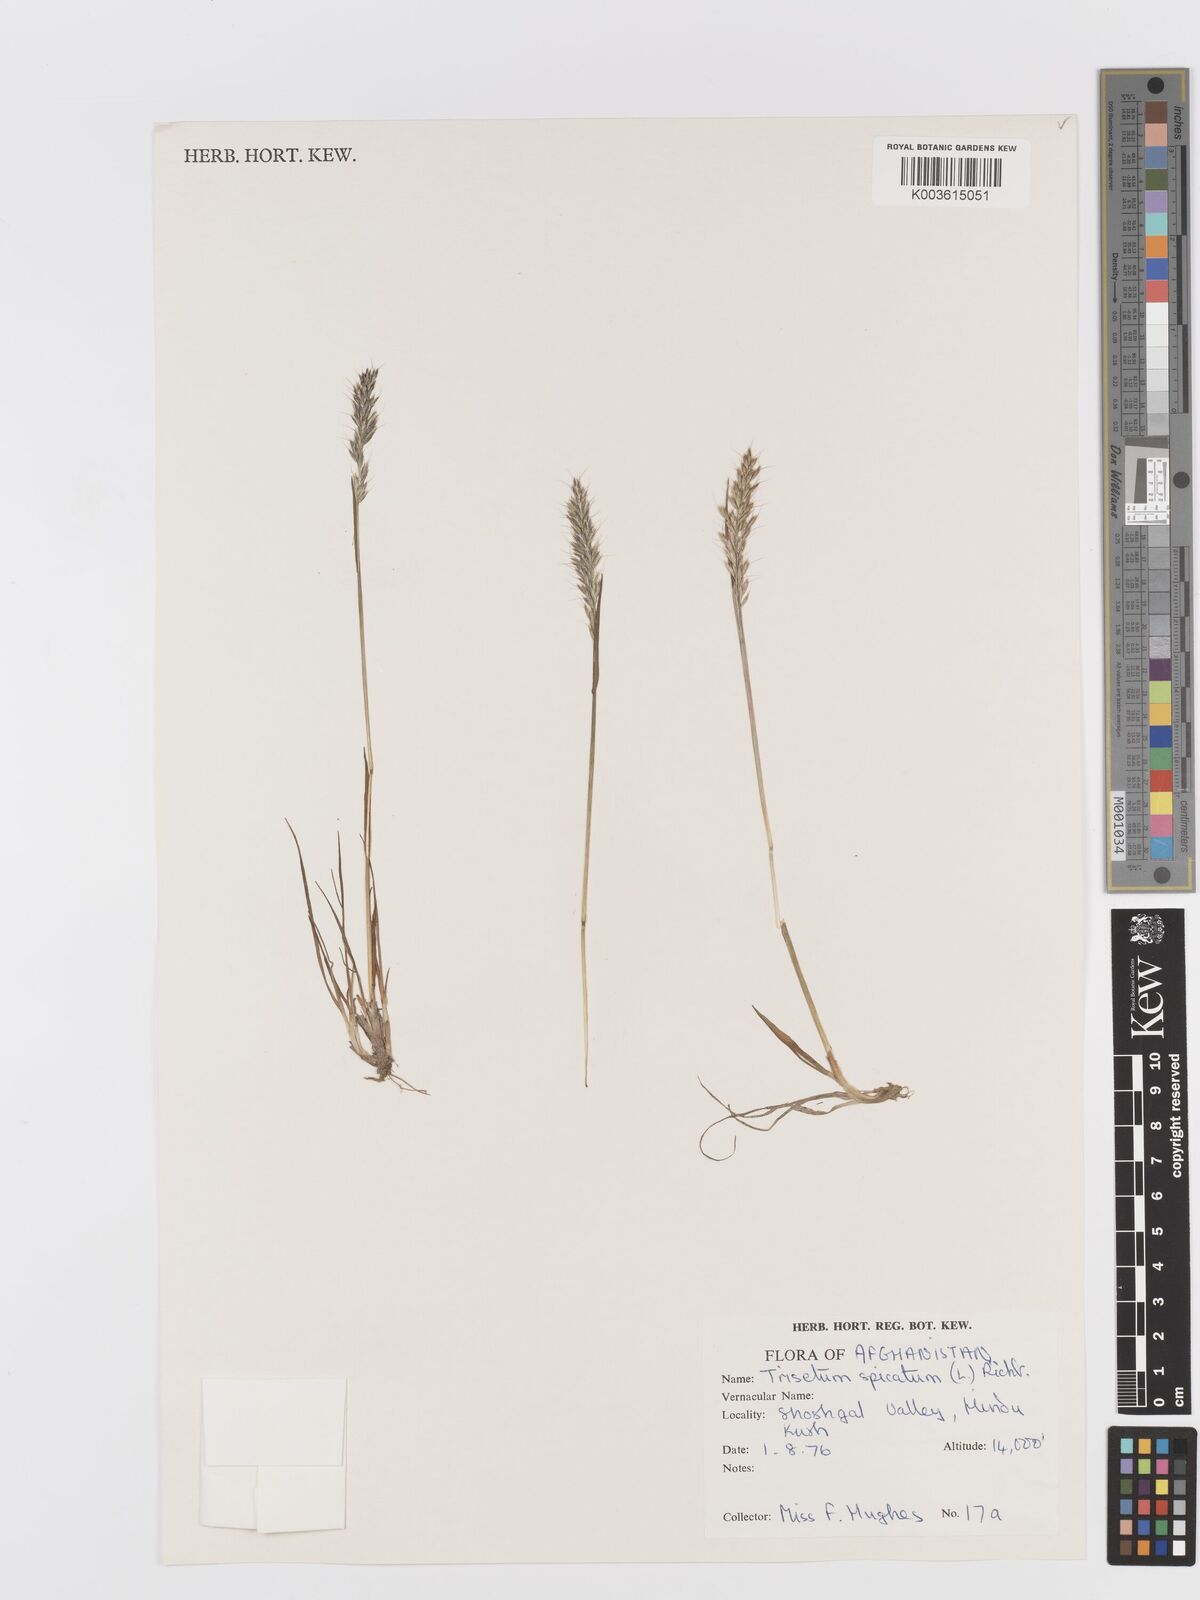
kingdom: Plantae
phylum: Tracheophyta
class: Liliopsida
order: Poales
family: Poaceae
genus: Koeleria
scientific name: Koeleria spicata
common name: Mountain trisetum
